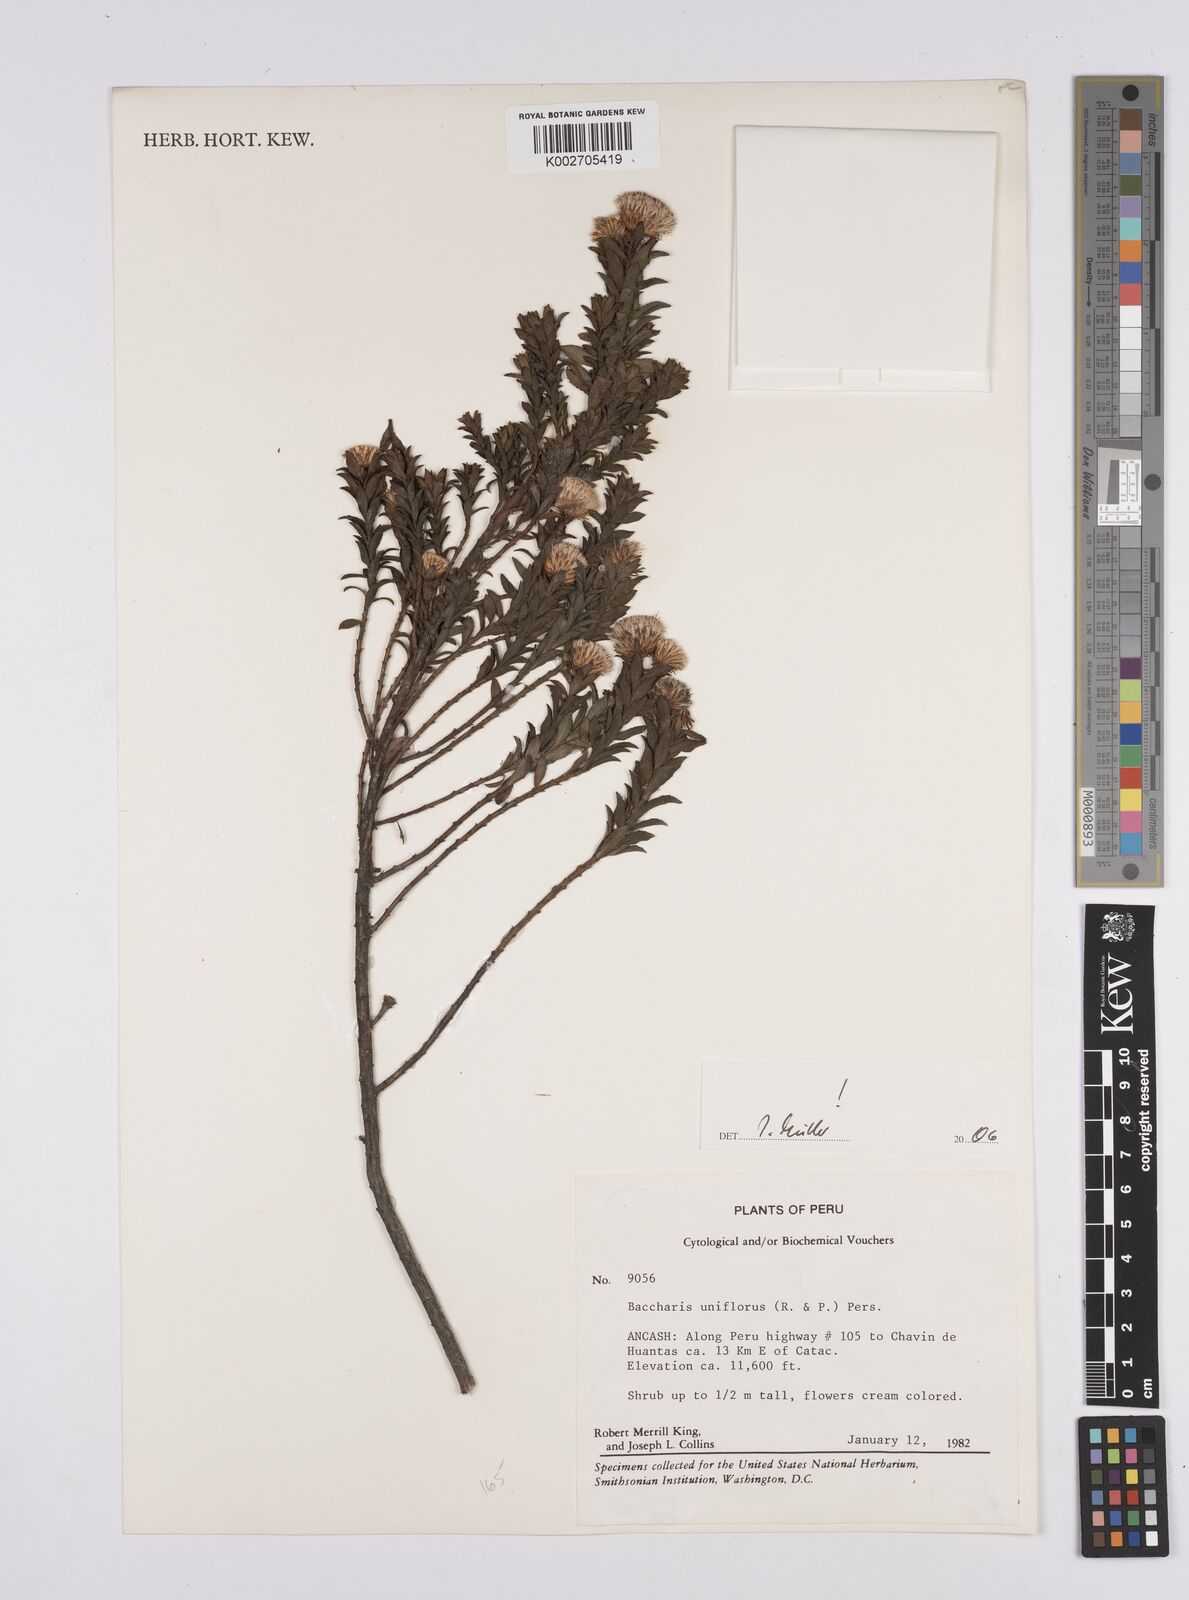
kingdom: Plantae
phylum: Tracheophyta
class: Magnoliopsida
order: Asterales
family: Asteraceae
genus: Baccharis
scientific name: Baccharis uniflora
